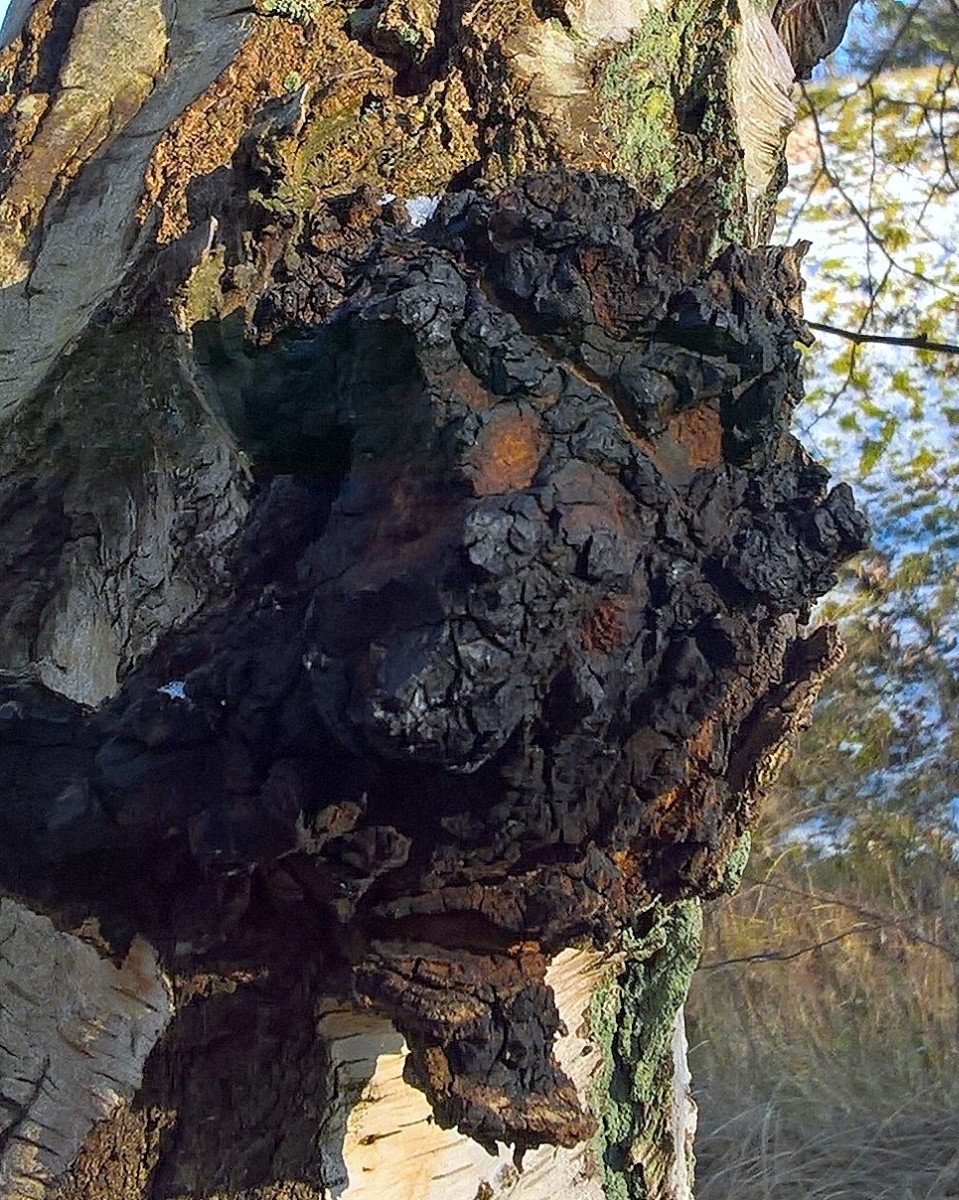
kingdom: Fungi
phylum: Basidiomycota
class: Agaricomycetes
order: Hymenochaetales
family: Hymenochaetaceae
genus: Inonotus
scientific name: Inonotus obliquus
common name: birke-spejlporesvamp
